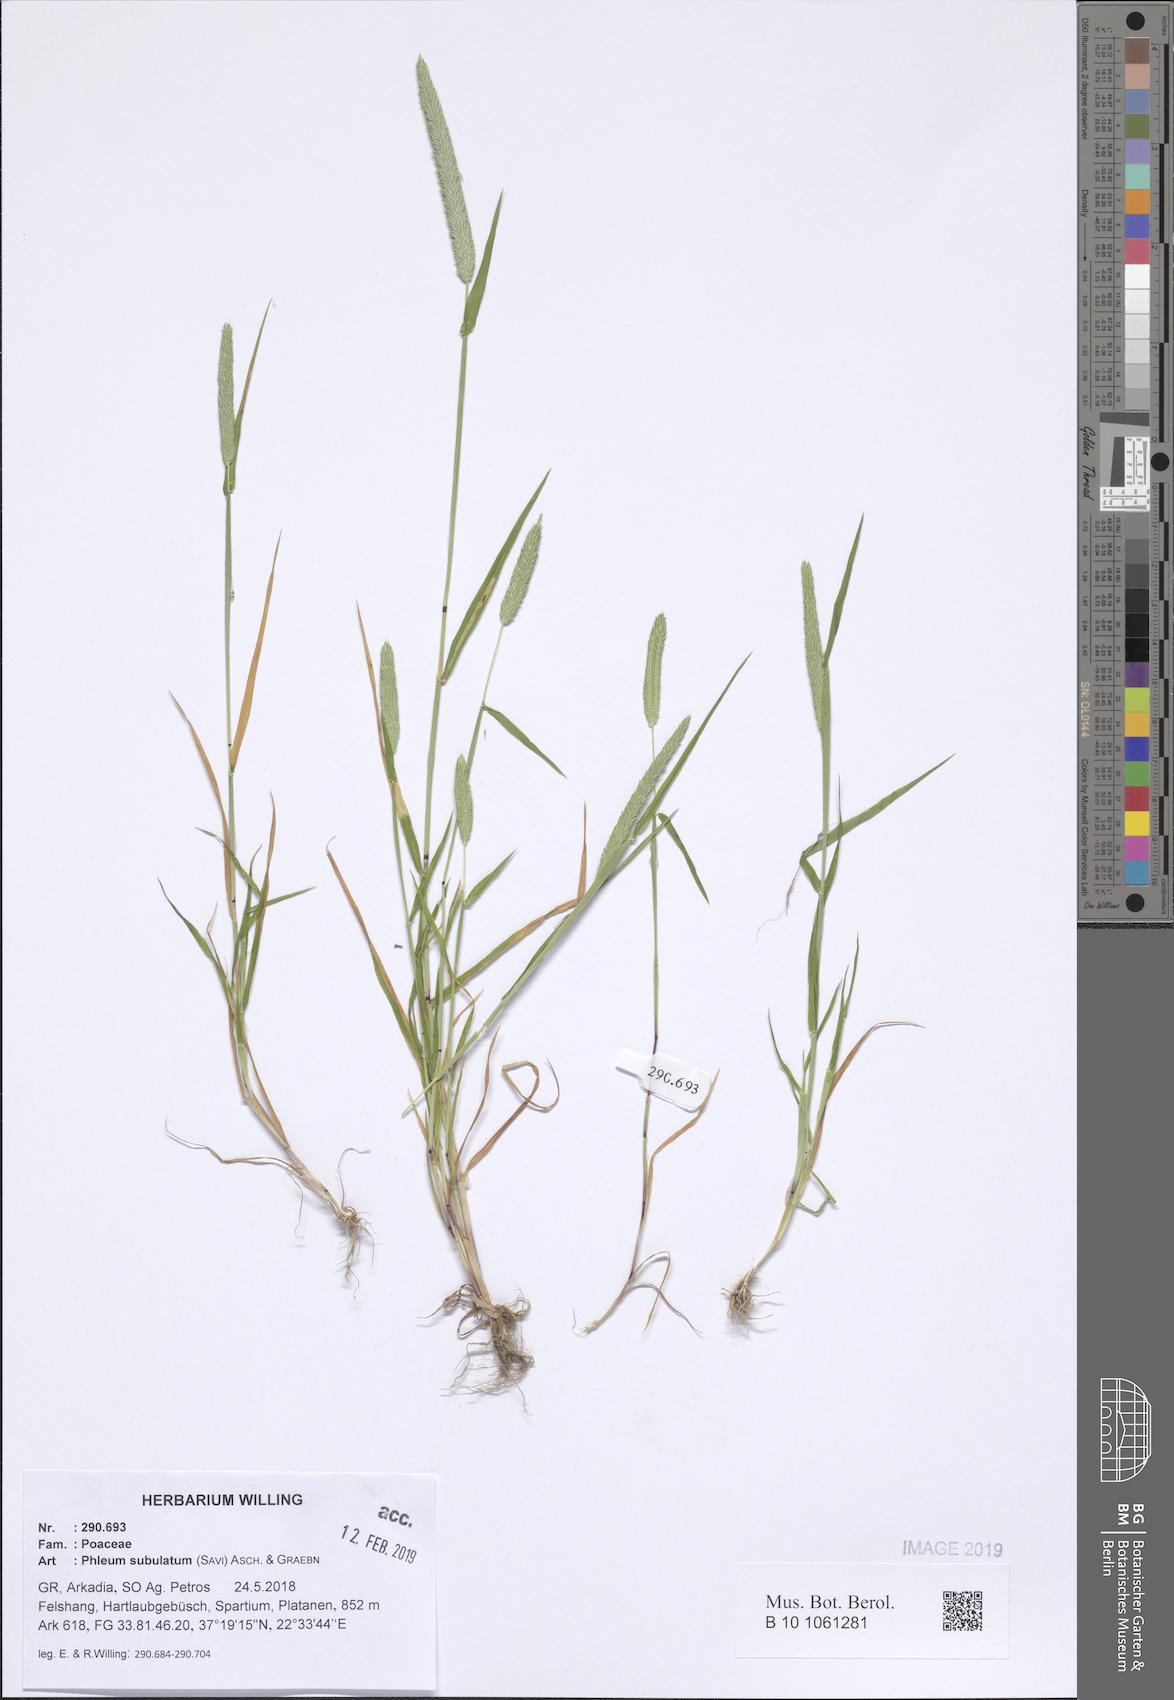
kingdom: Plantae
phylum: Tracheophyta
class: Liliopsida
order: Poales
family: Poaceae
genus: Phleum
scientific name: Phleum subulatum
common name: Italian timothy
